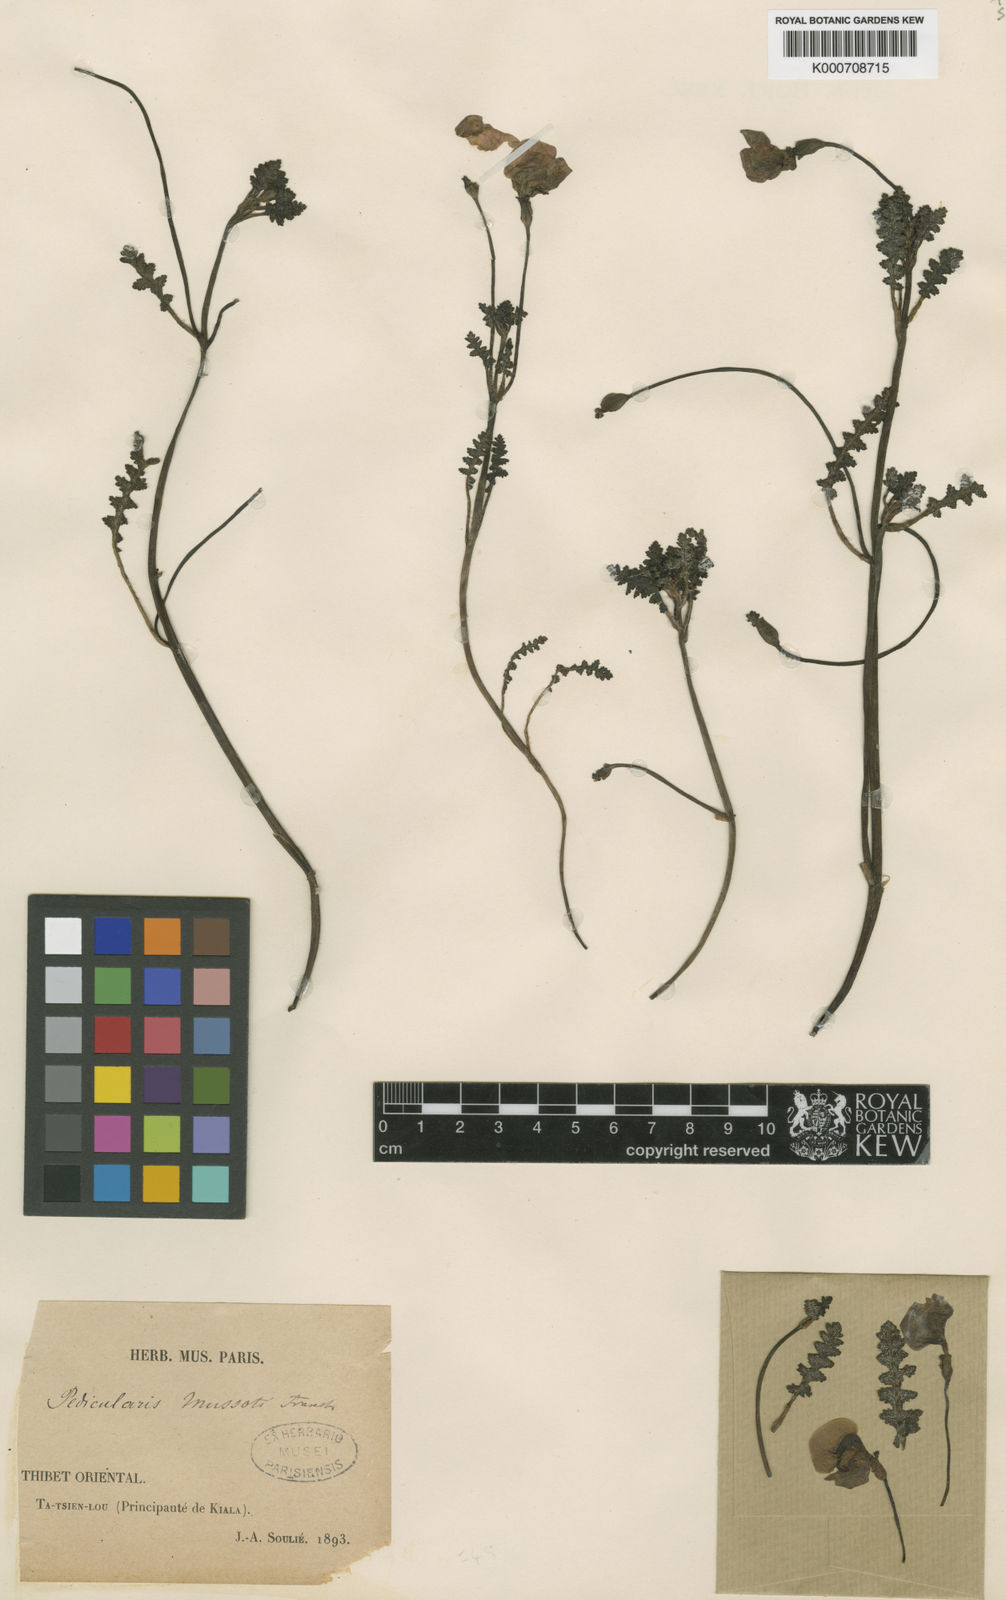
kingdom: Plantae
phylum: Tracheophyta
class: Magnoliopsida
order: Lamiales
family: Orobanchaceae
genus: Pedicularis
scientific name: Pedicularis
